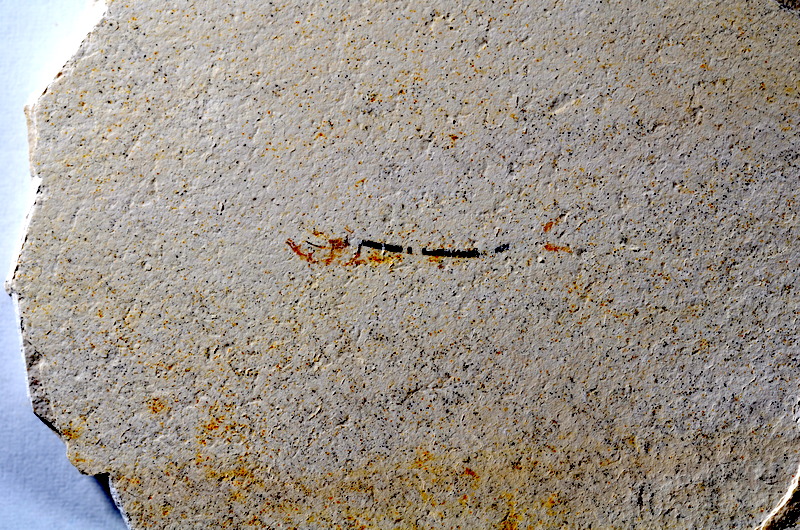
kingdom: Animalia
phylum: Chordata
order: Salmoniformes
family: Orthogonikleithridae
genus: Orthogonikleithrus
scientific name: Orthogonikleithrus hoelli
